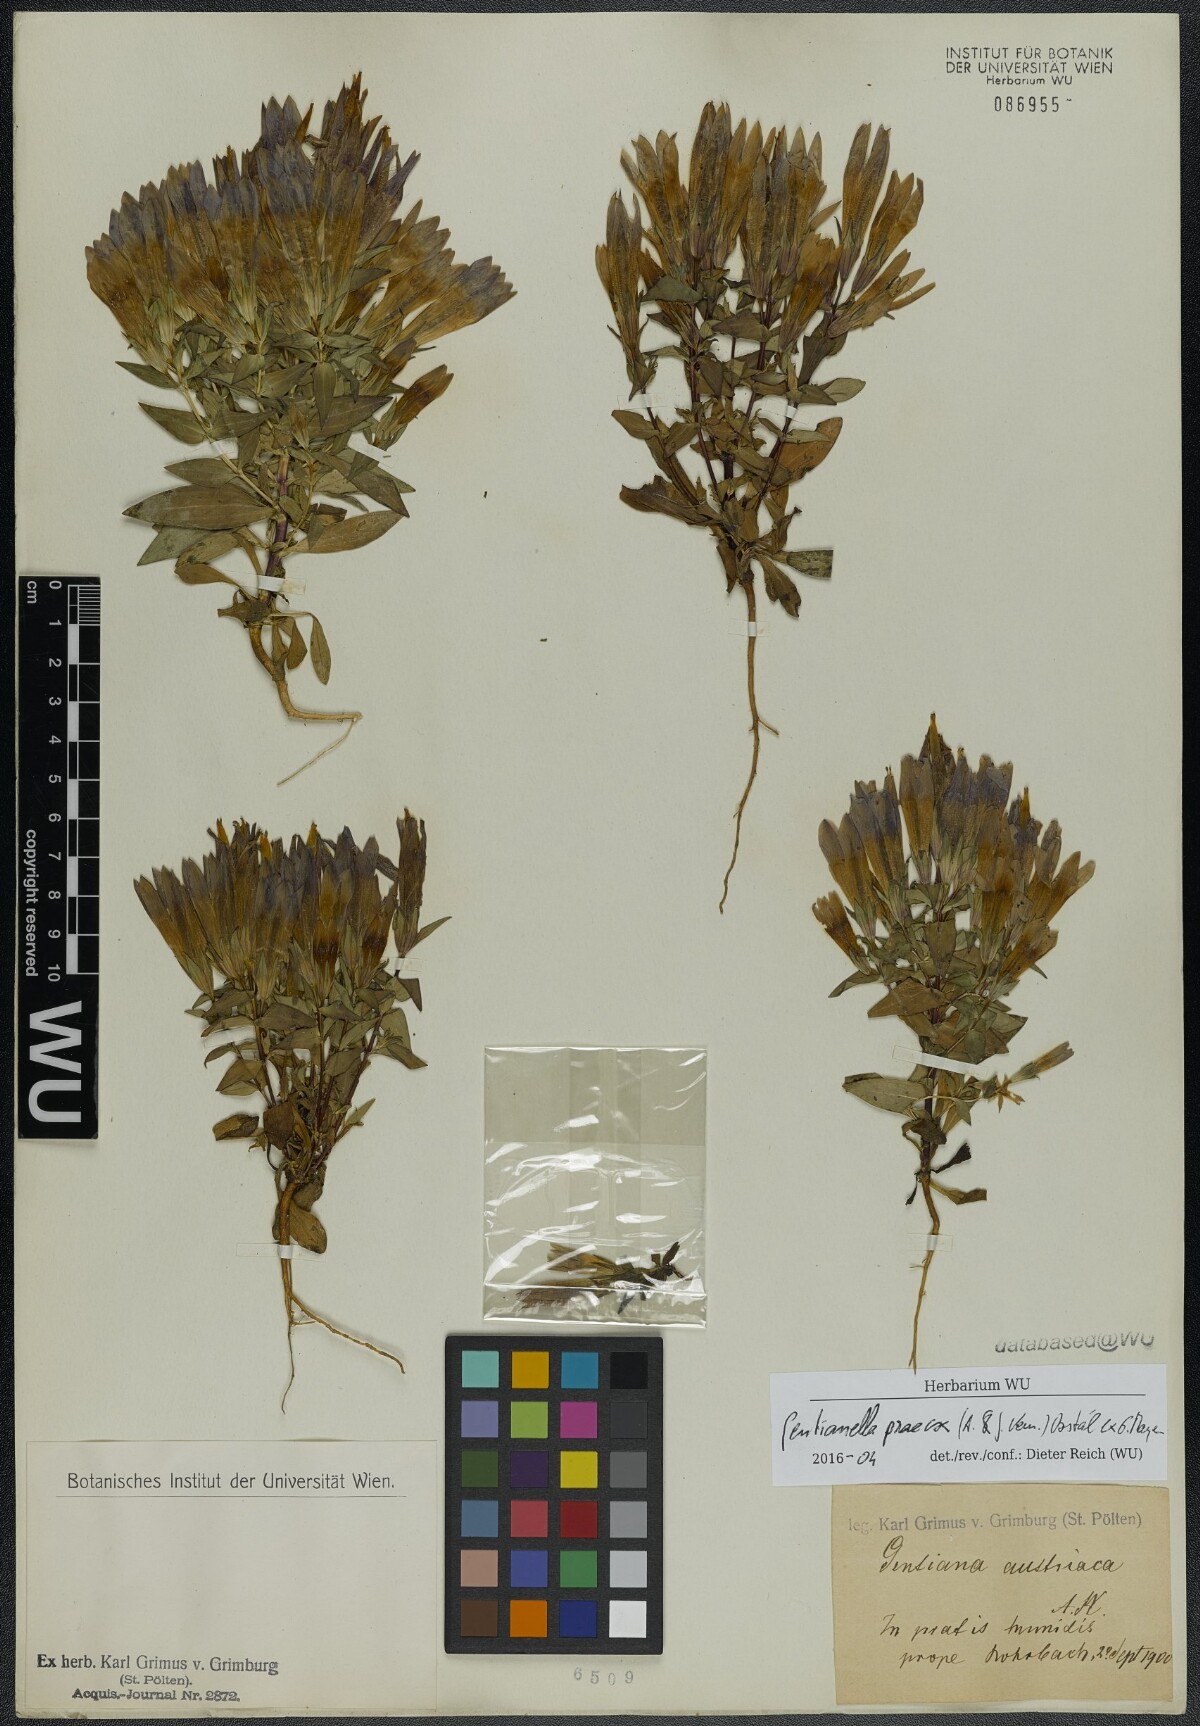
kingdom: Plantae
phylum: Tracheophyta
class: Magnoliopsida
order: Gentianales
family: Gentianaceae
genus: Gentianella
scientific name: Gentianella praecox
